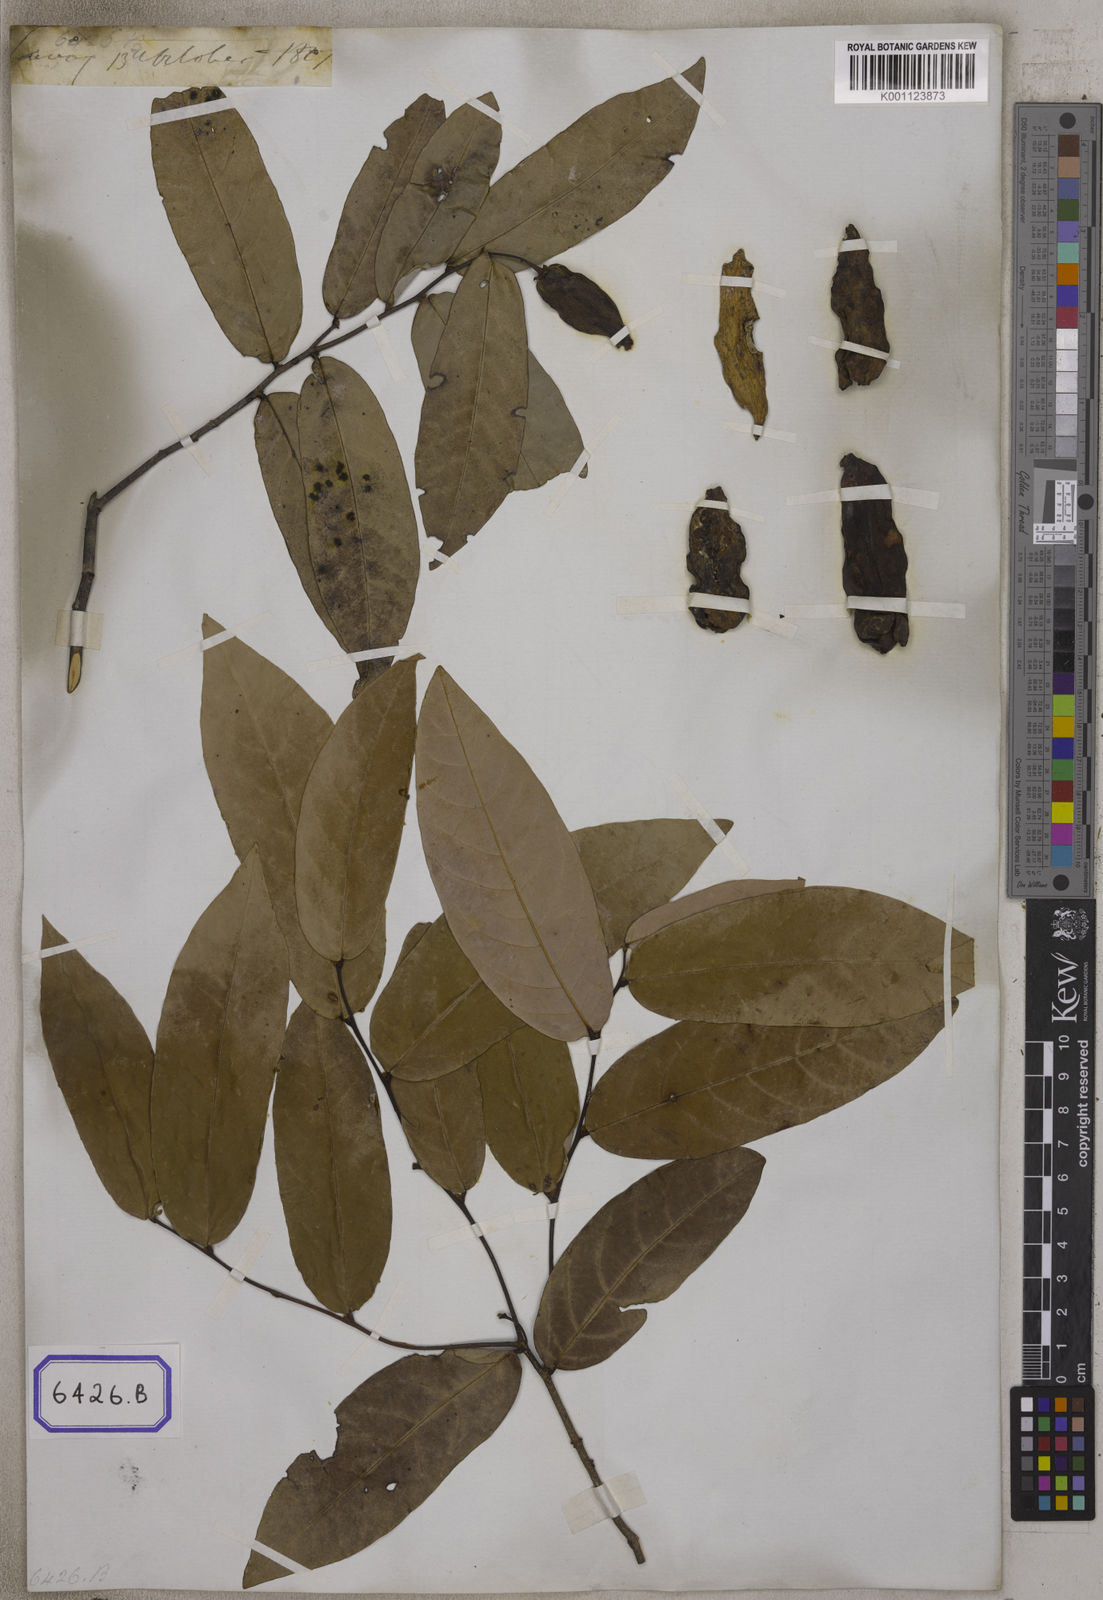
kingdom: Plantae
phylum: Tracheophyta
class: Magnoliopsida
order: Magnoliales
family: Annonaceae
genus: Dasymaschalon
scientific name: Dasymaschalon dasymaschalum
